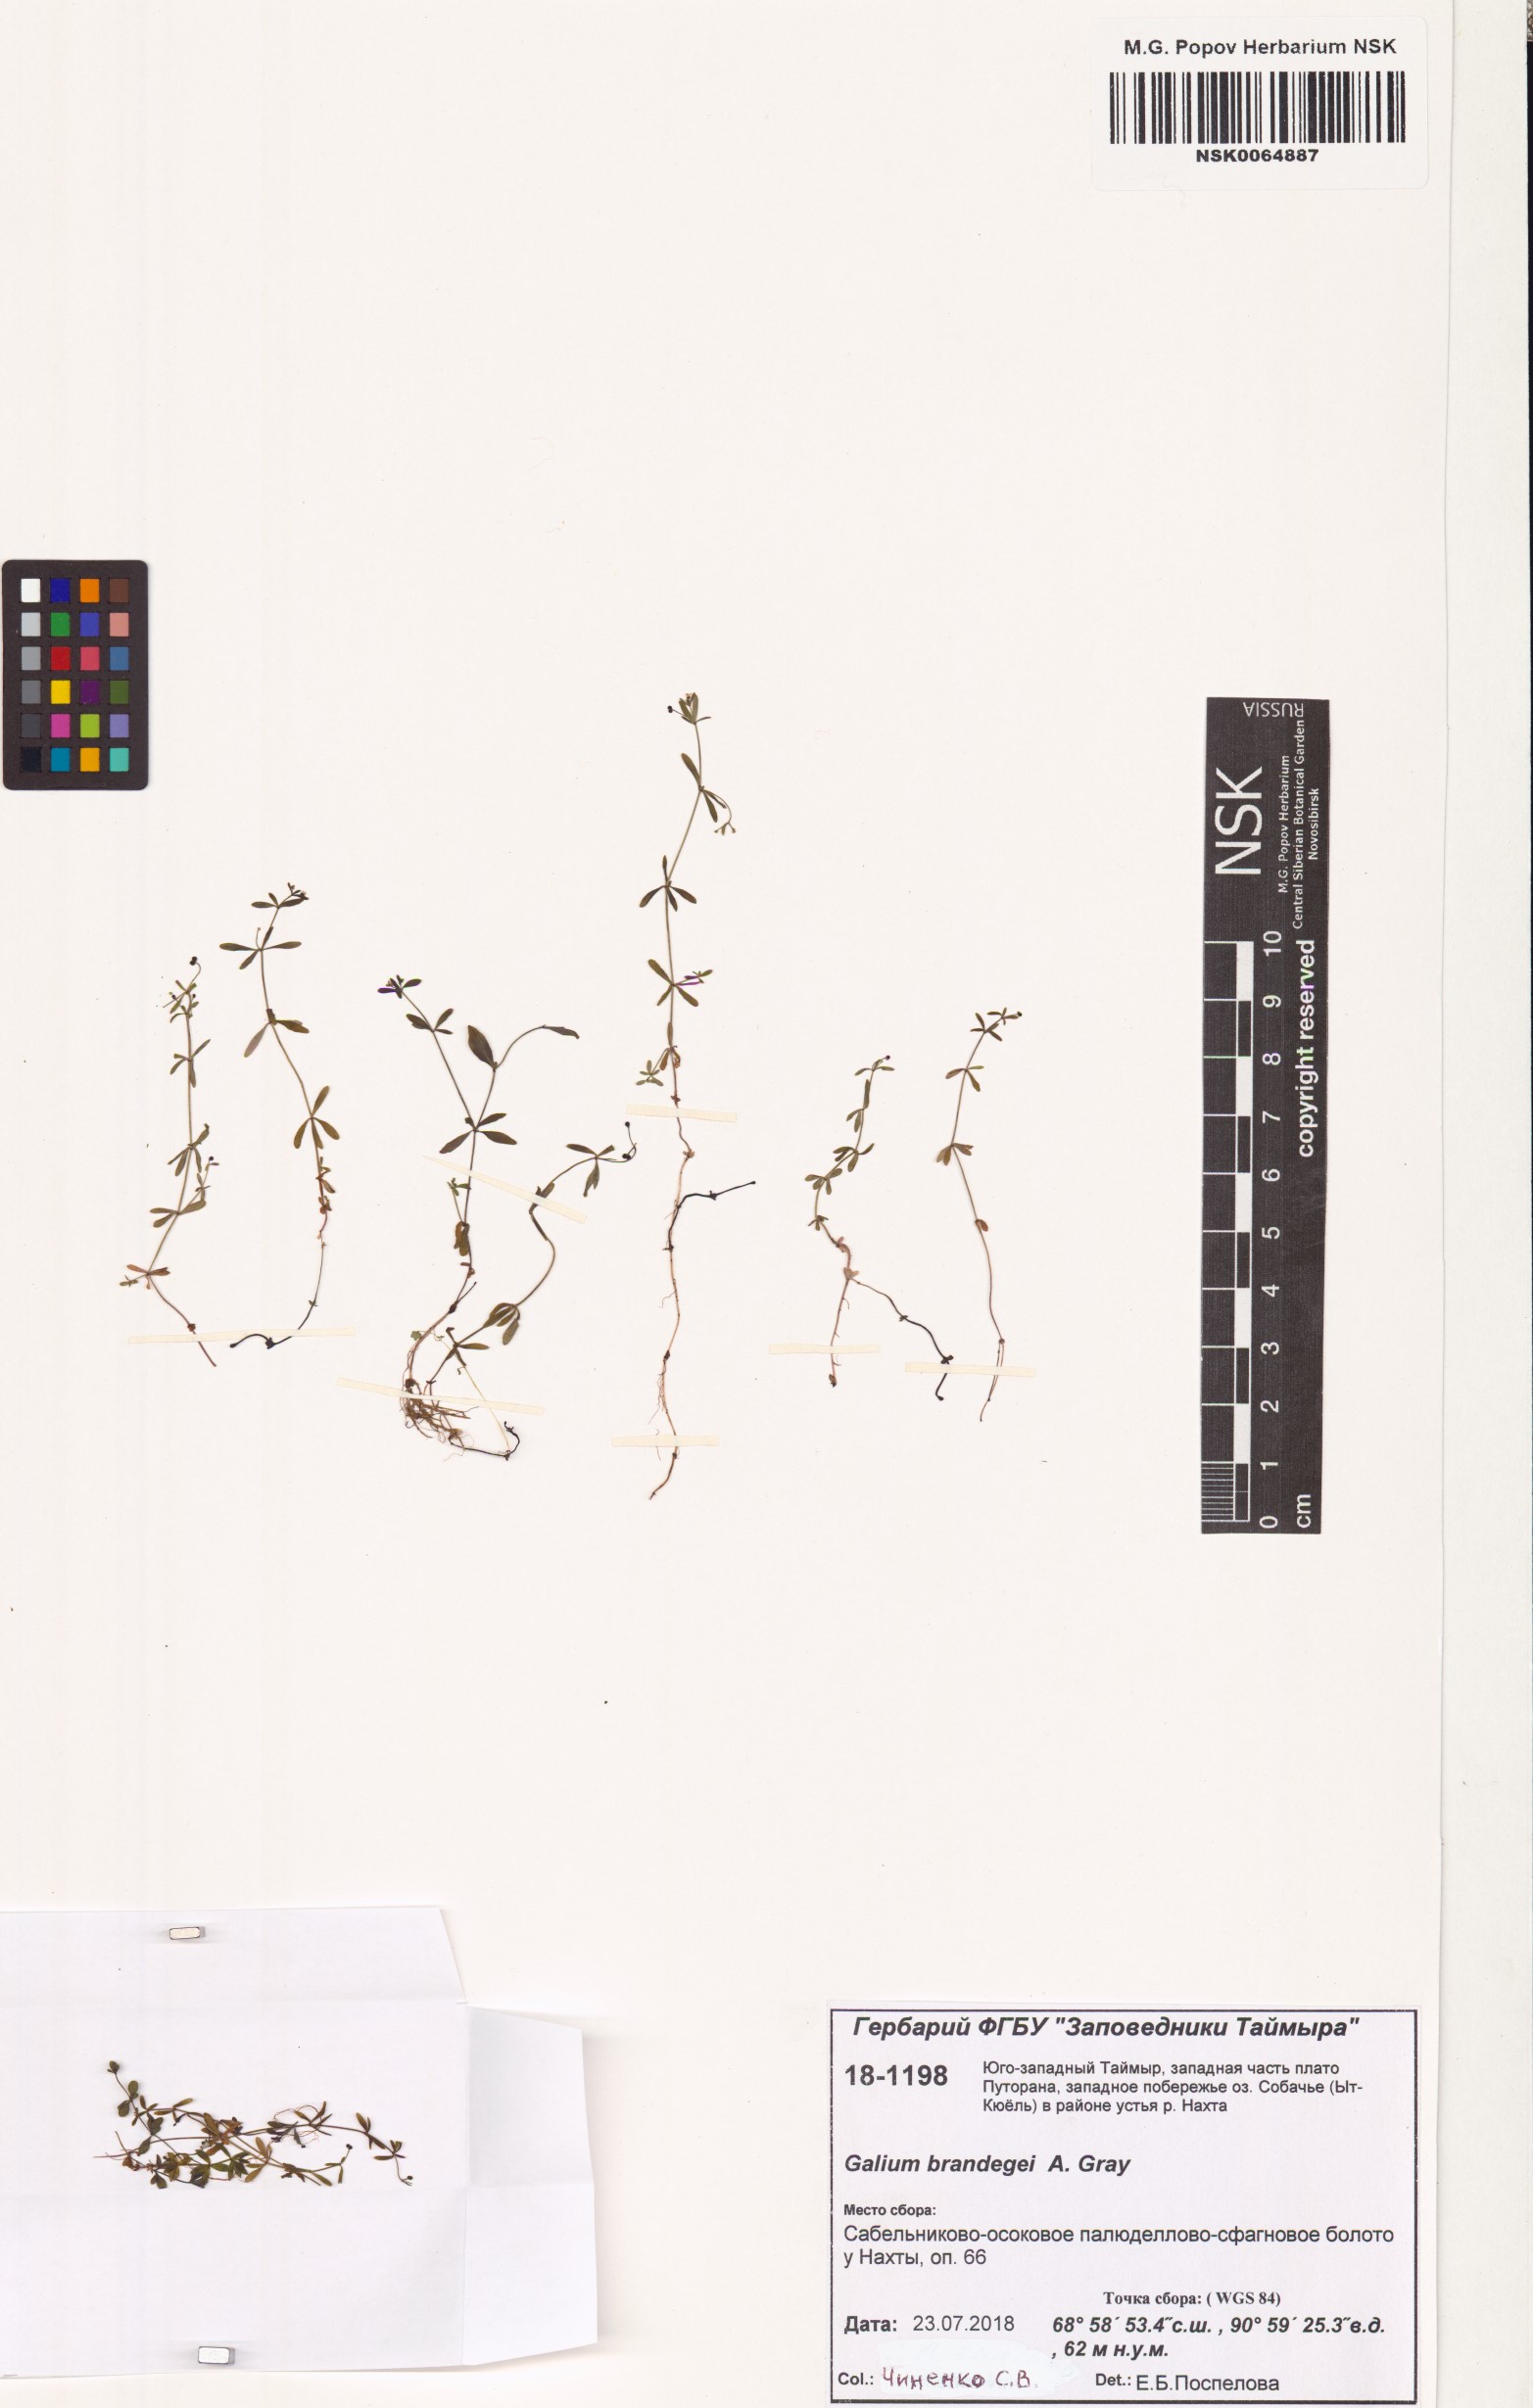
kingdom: Plantae
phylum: Tracheophyta
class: Magnoliopsida
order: Gentianales
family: Rubiaceae
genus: Galium
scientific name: Galium trifidum
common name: Small bedstraw
